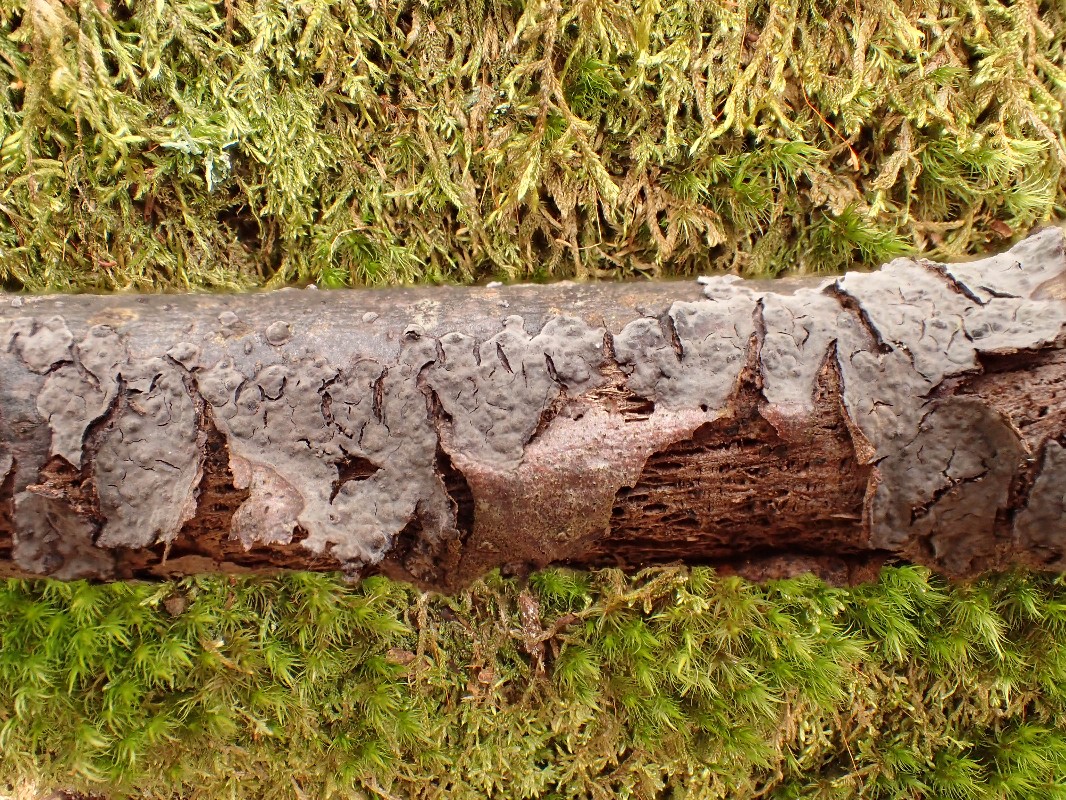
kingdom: Fungi
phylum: Basidiomycota
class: Agaricomycetes
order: Russulales
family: Peniophoraceae
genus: Peniophora
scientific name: Peniophora rufomarginata
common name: linde-voksskind
